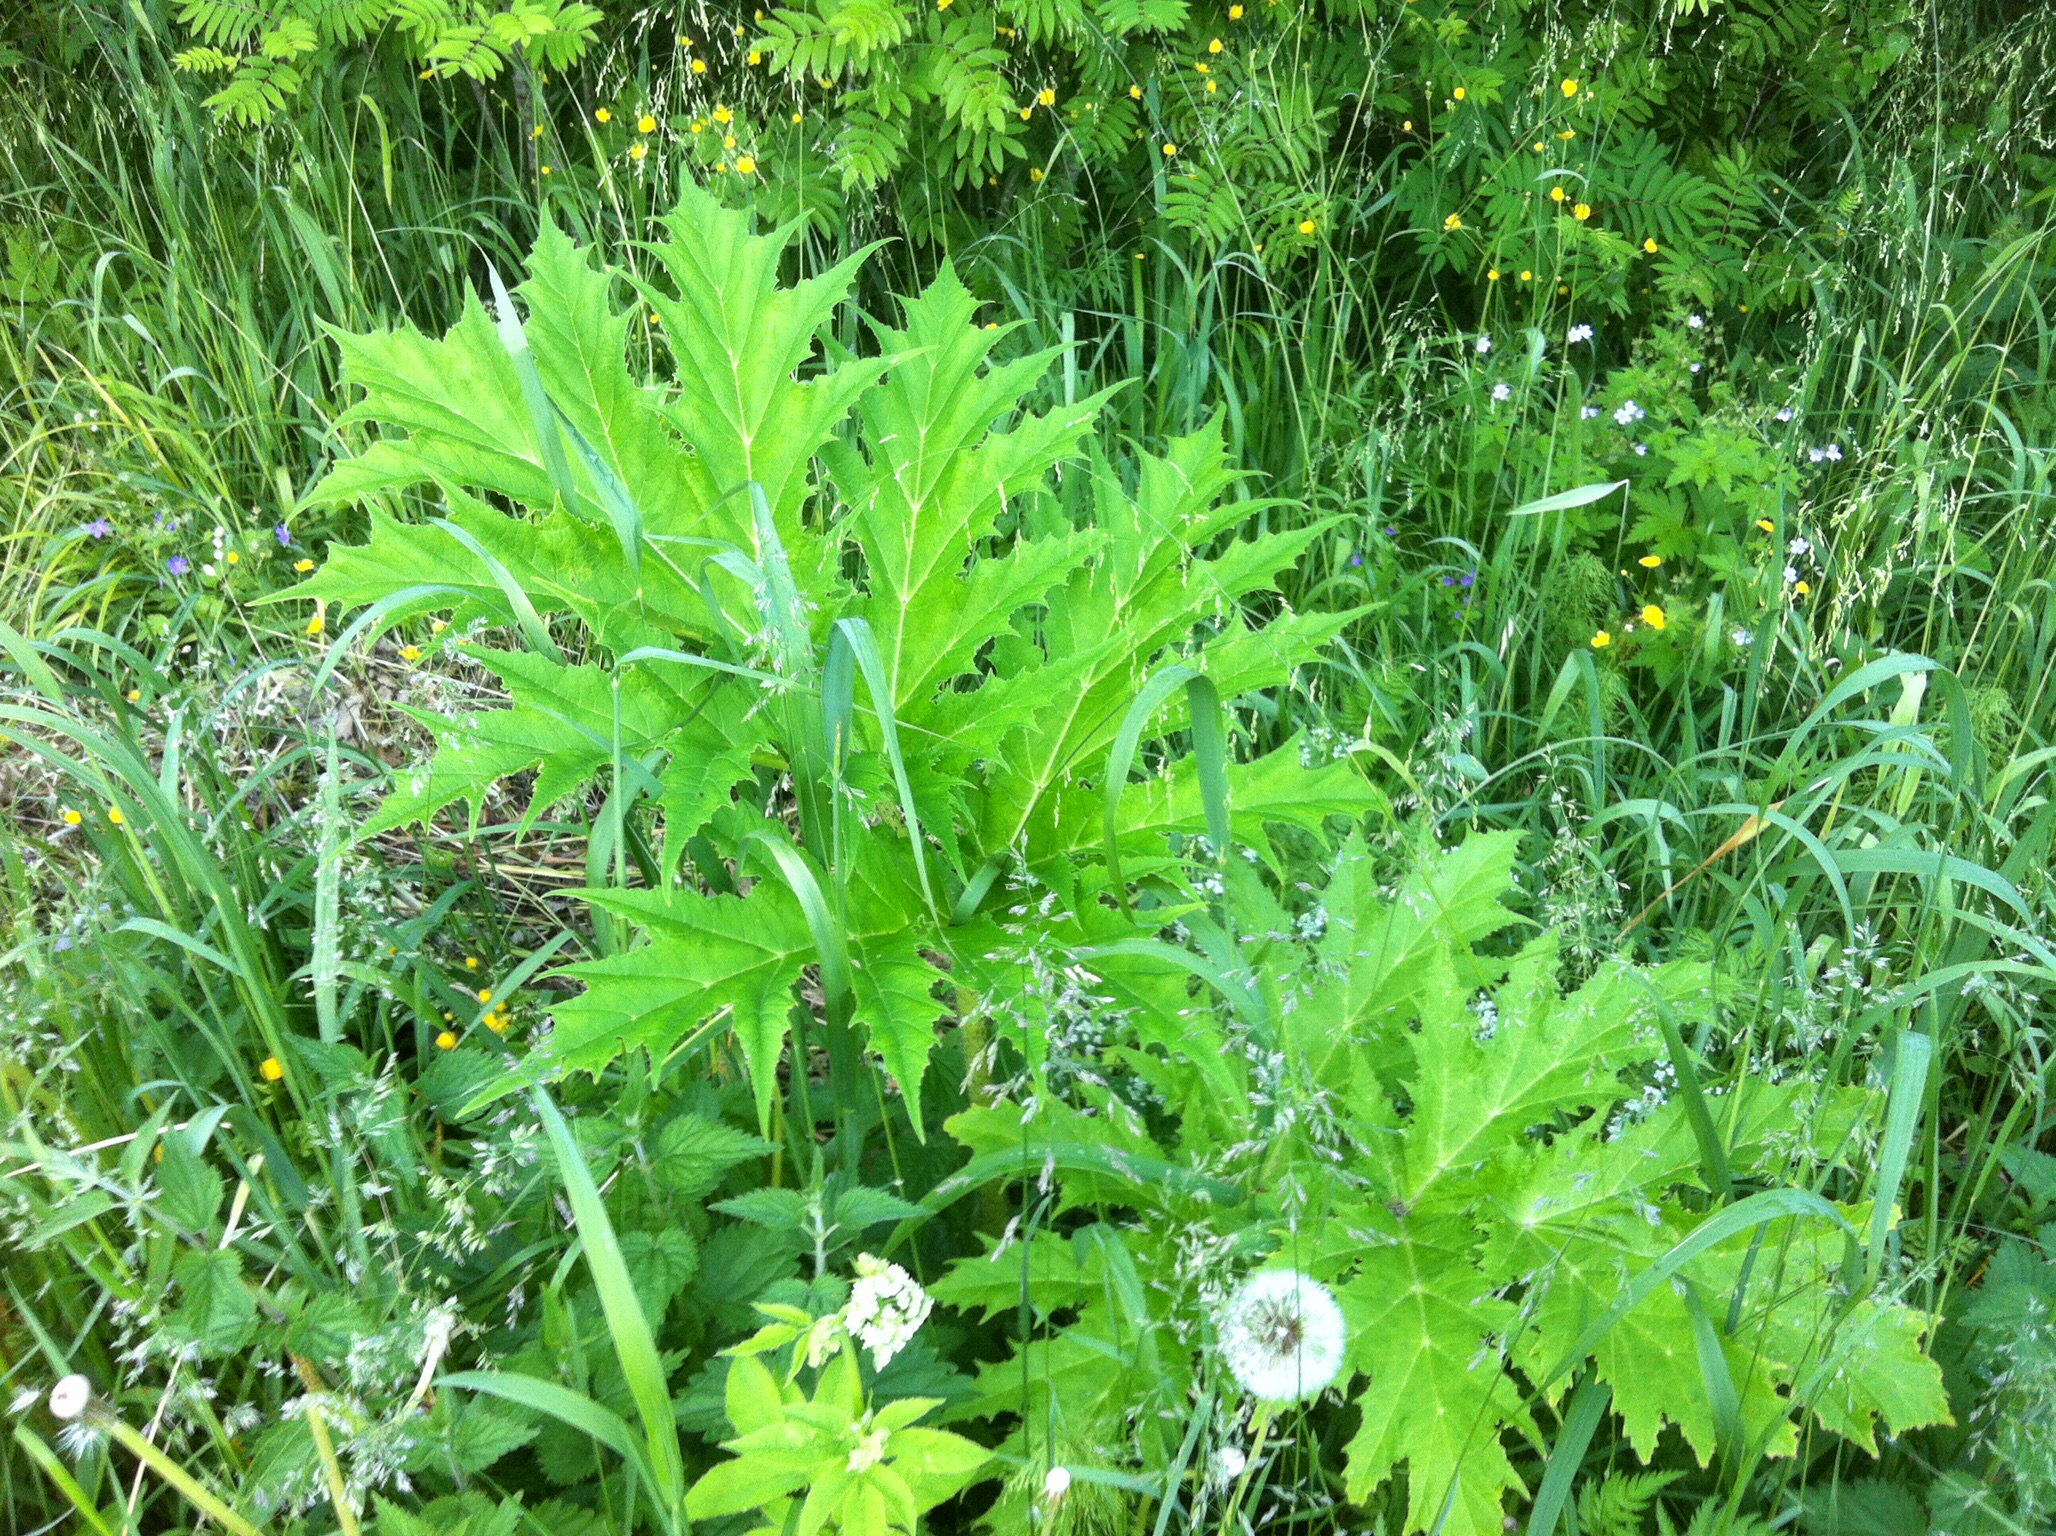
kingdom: Plantae
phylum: Tracheophyta
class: Magnoliopsida
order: Apiales
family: Apiaceae
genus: Heracleum
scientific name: Heracleum
